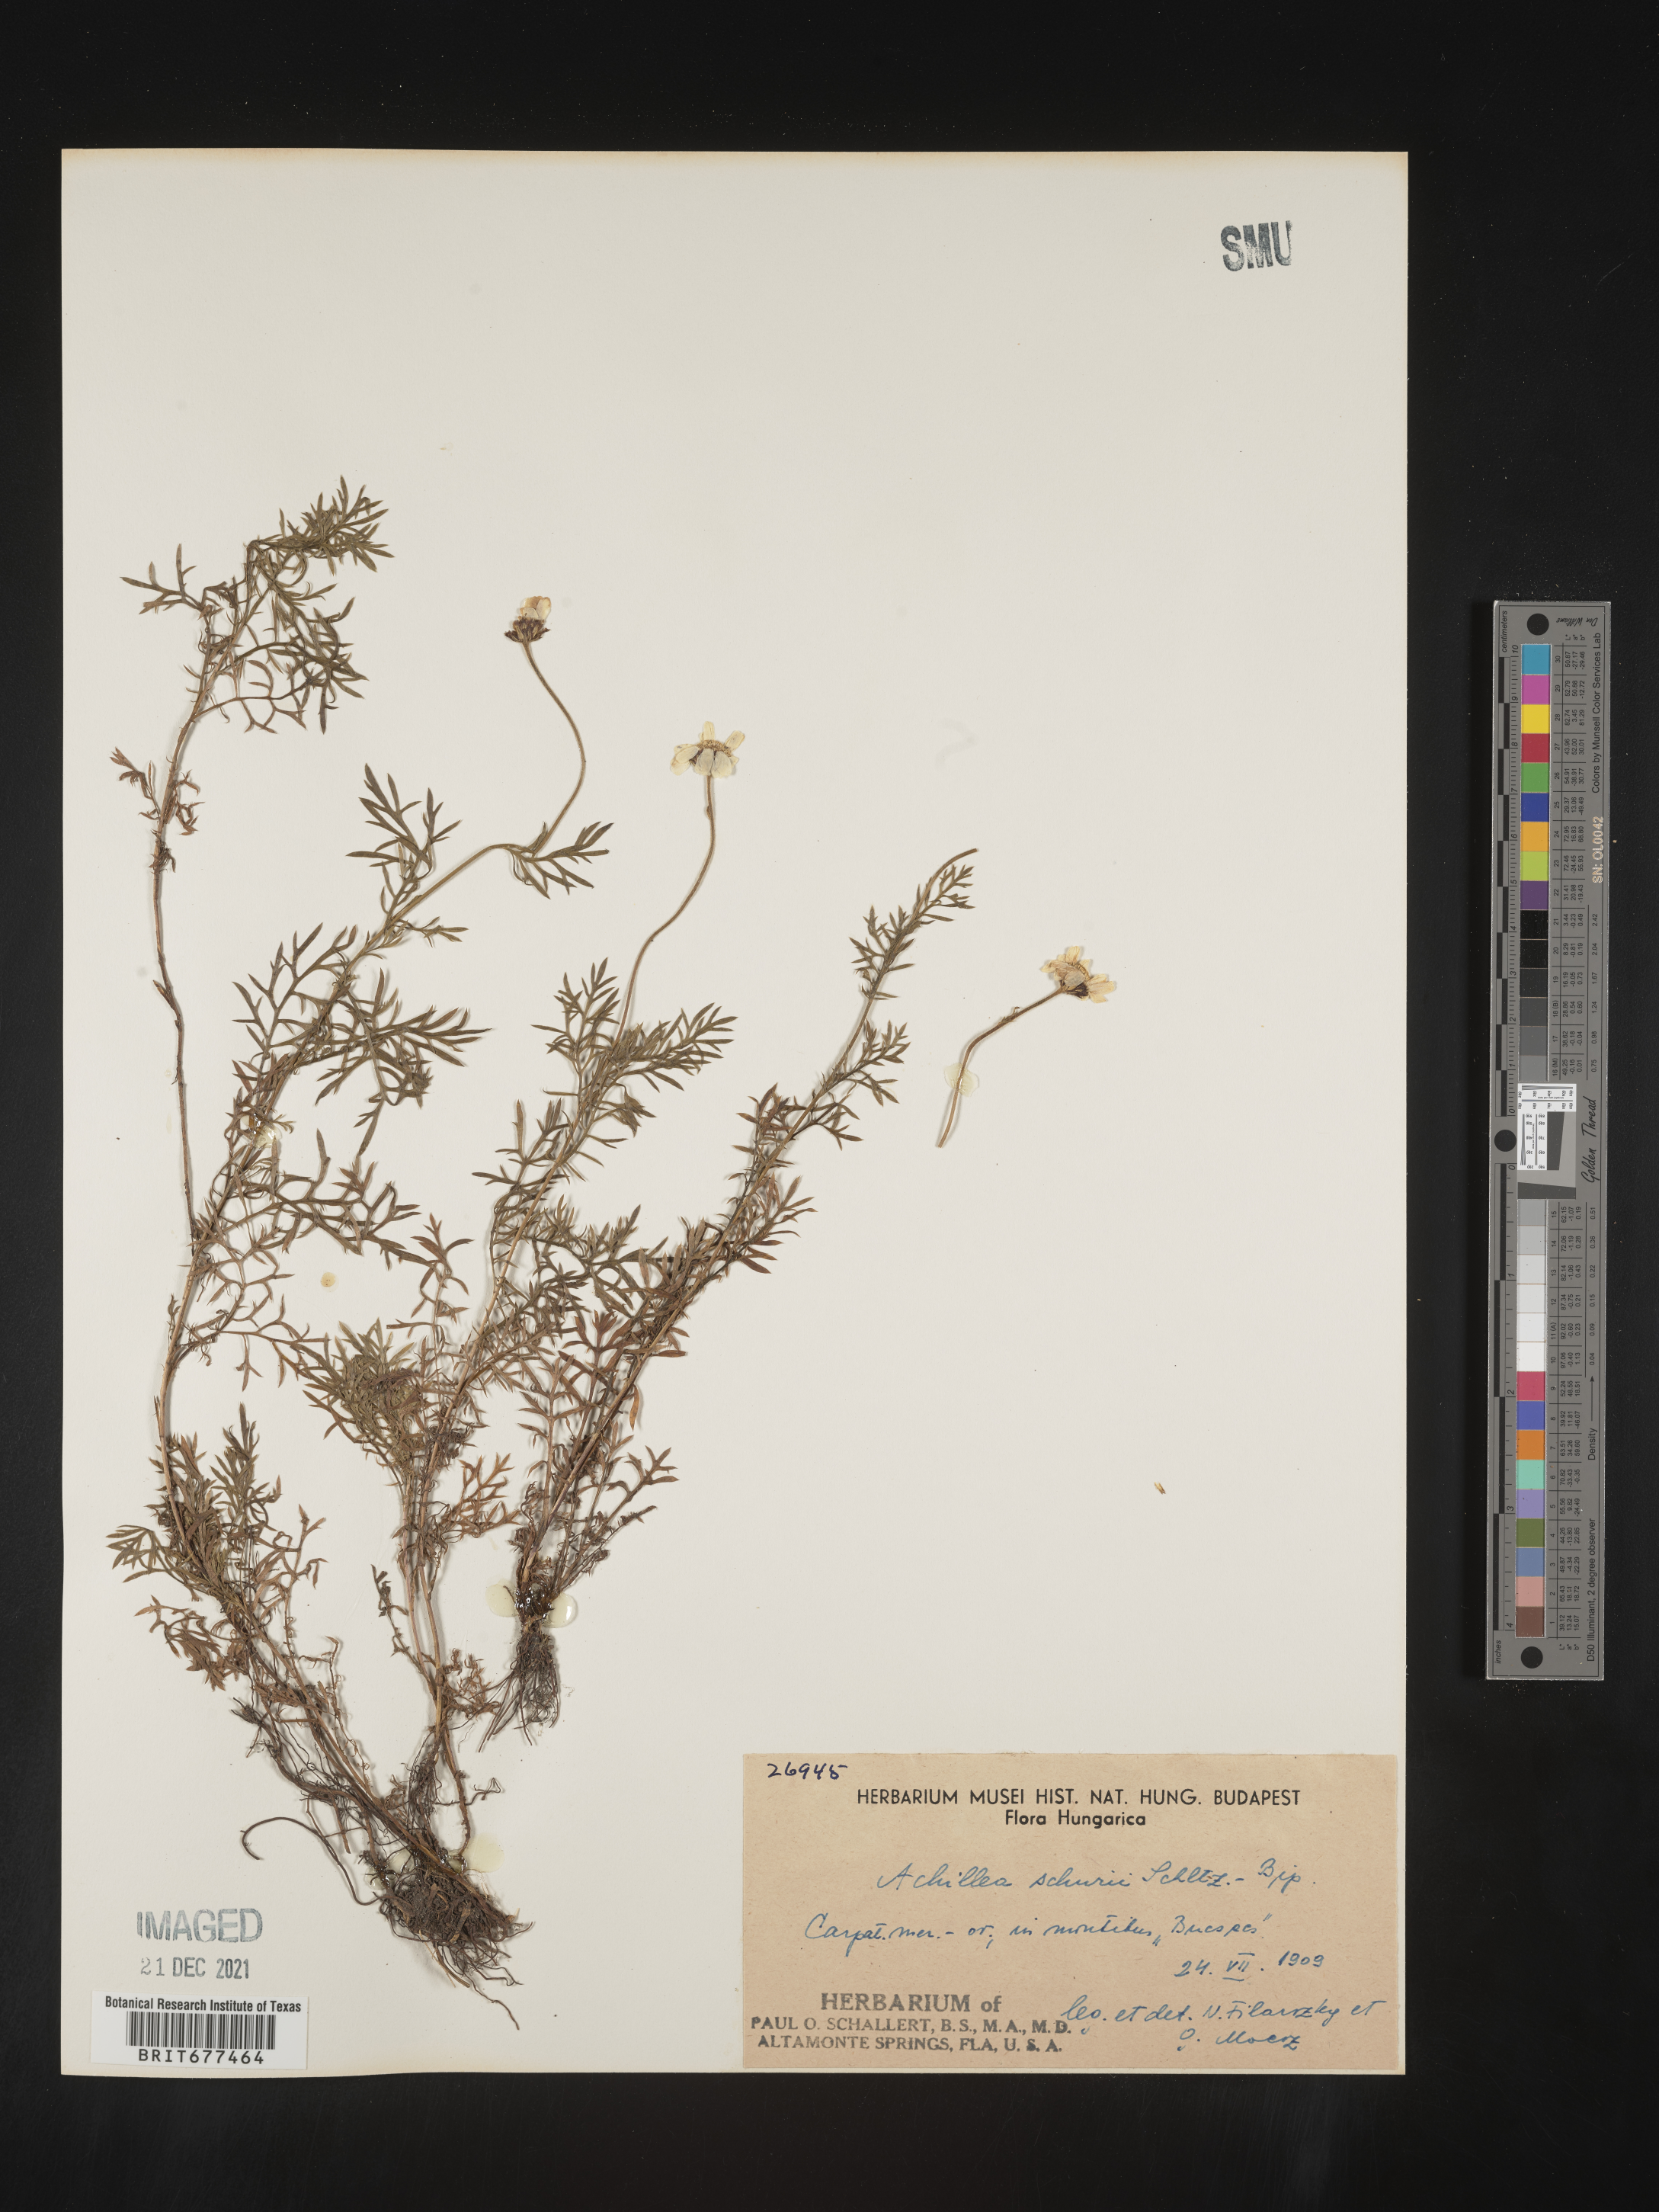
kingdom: Plantae
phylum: Tracheophyta
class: Magnoliopsida
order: Asterales
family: Asteraceae
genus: Achillea
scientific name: Achillea
